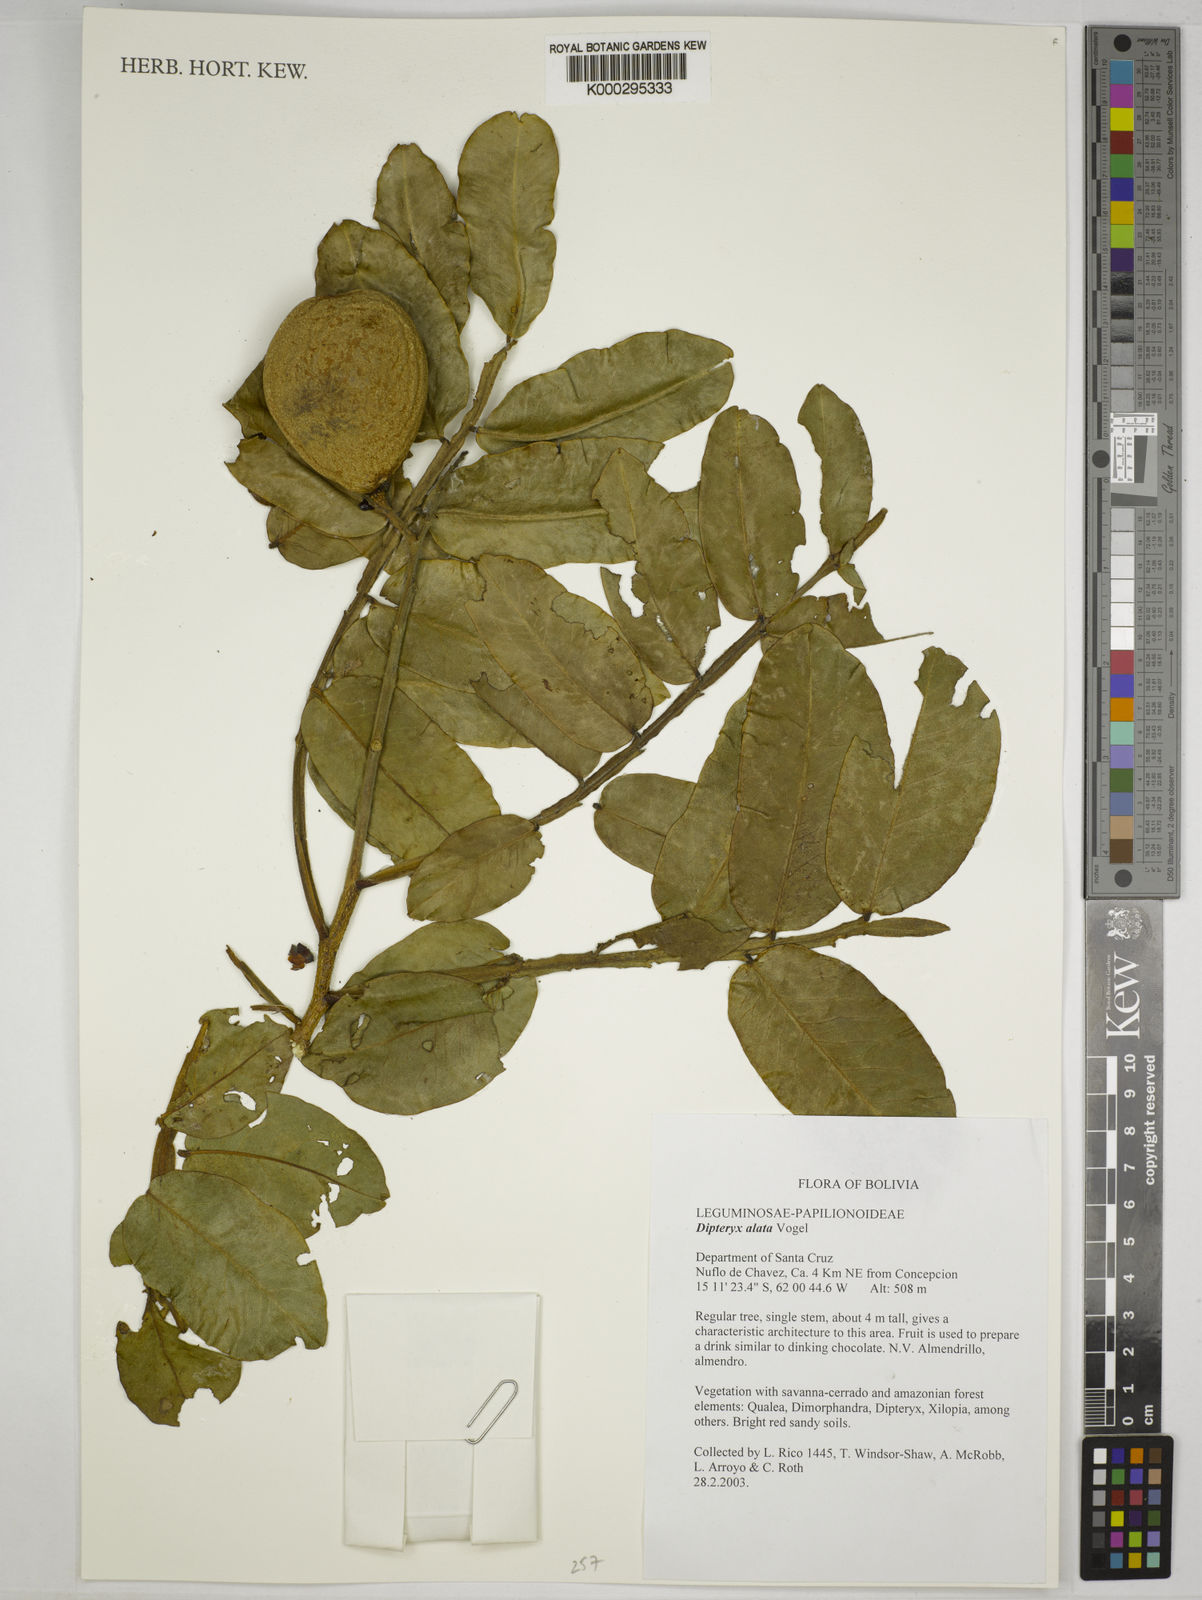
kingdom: Plantae
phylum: Tracheophyta
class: Magnoliopsida
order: Fabales
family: Fabaceae
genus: Dipteryx
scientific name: Dipteryx alata
